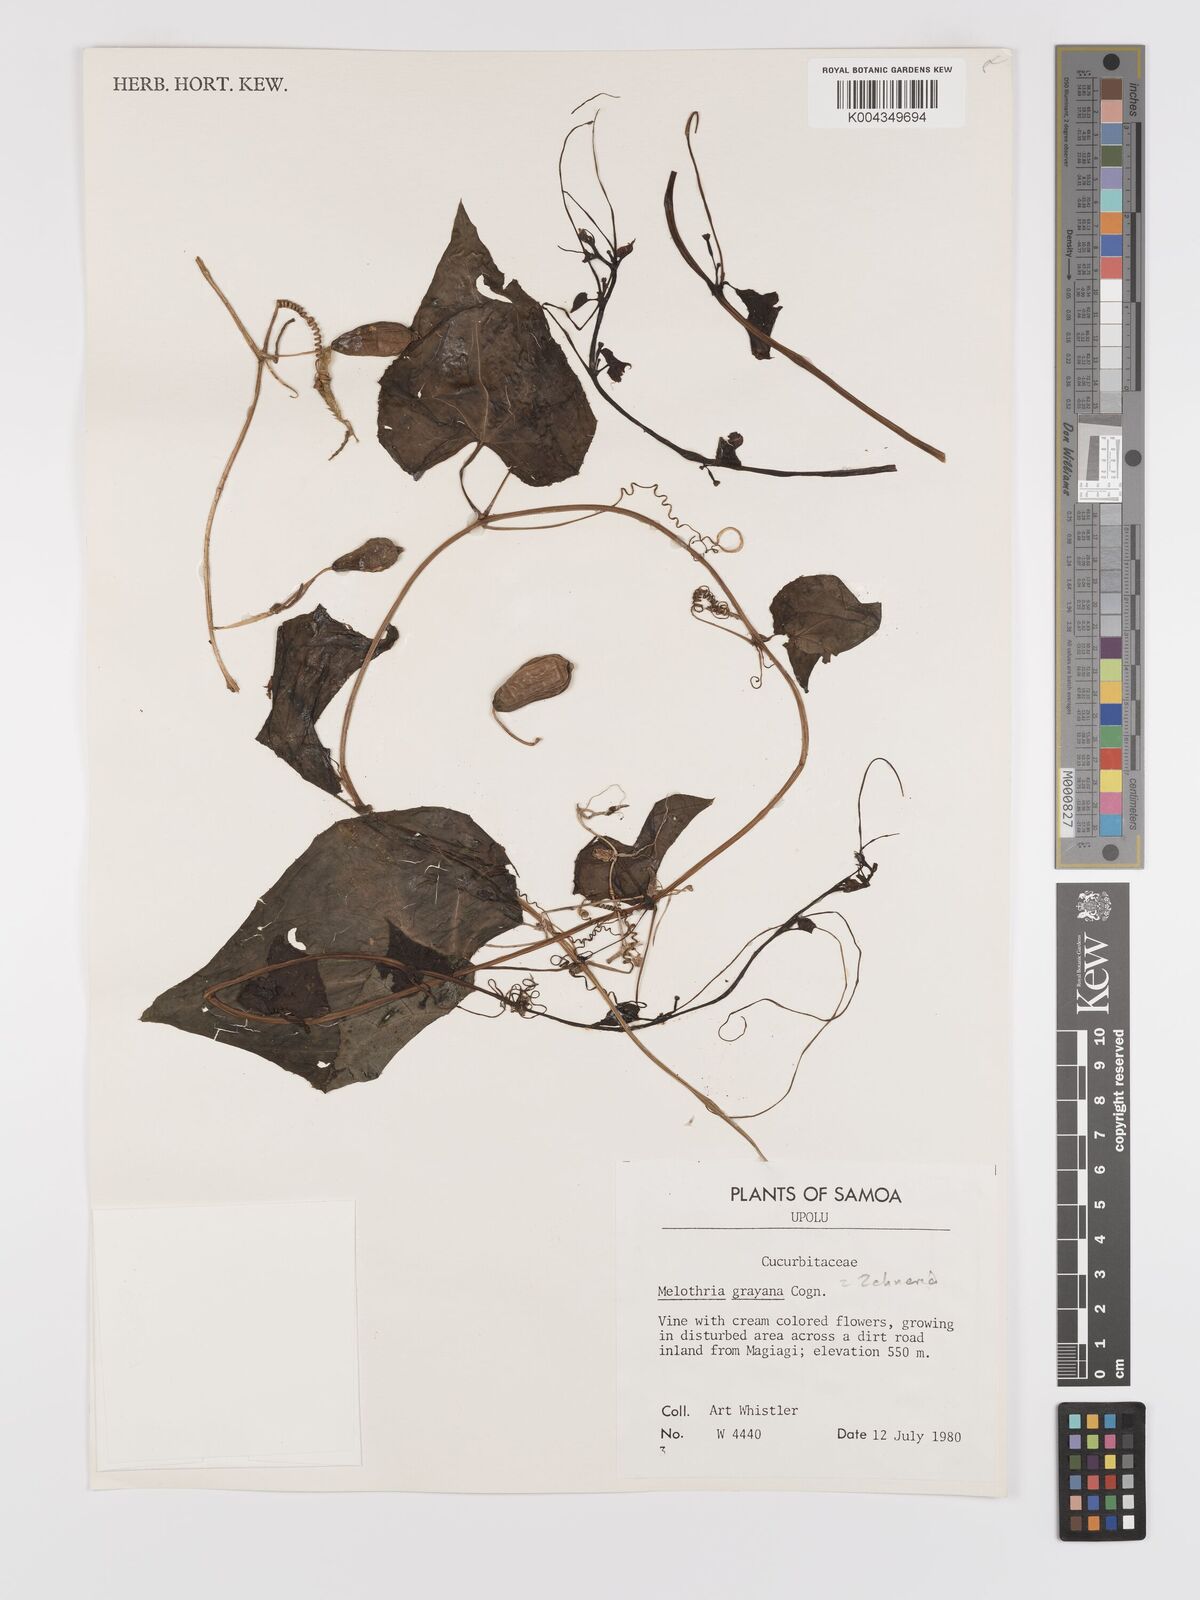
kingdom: Plantae
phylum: Tracheophyta
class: Magnoliopsida
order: Cucurbitales
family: Cucurbitaceae
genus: Zehneria
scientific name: Zehneria
